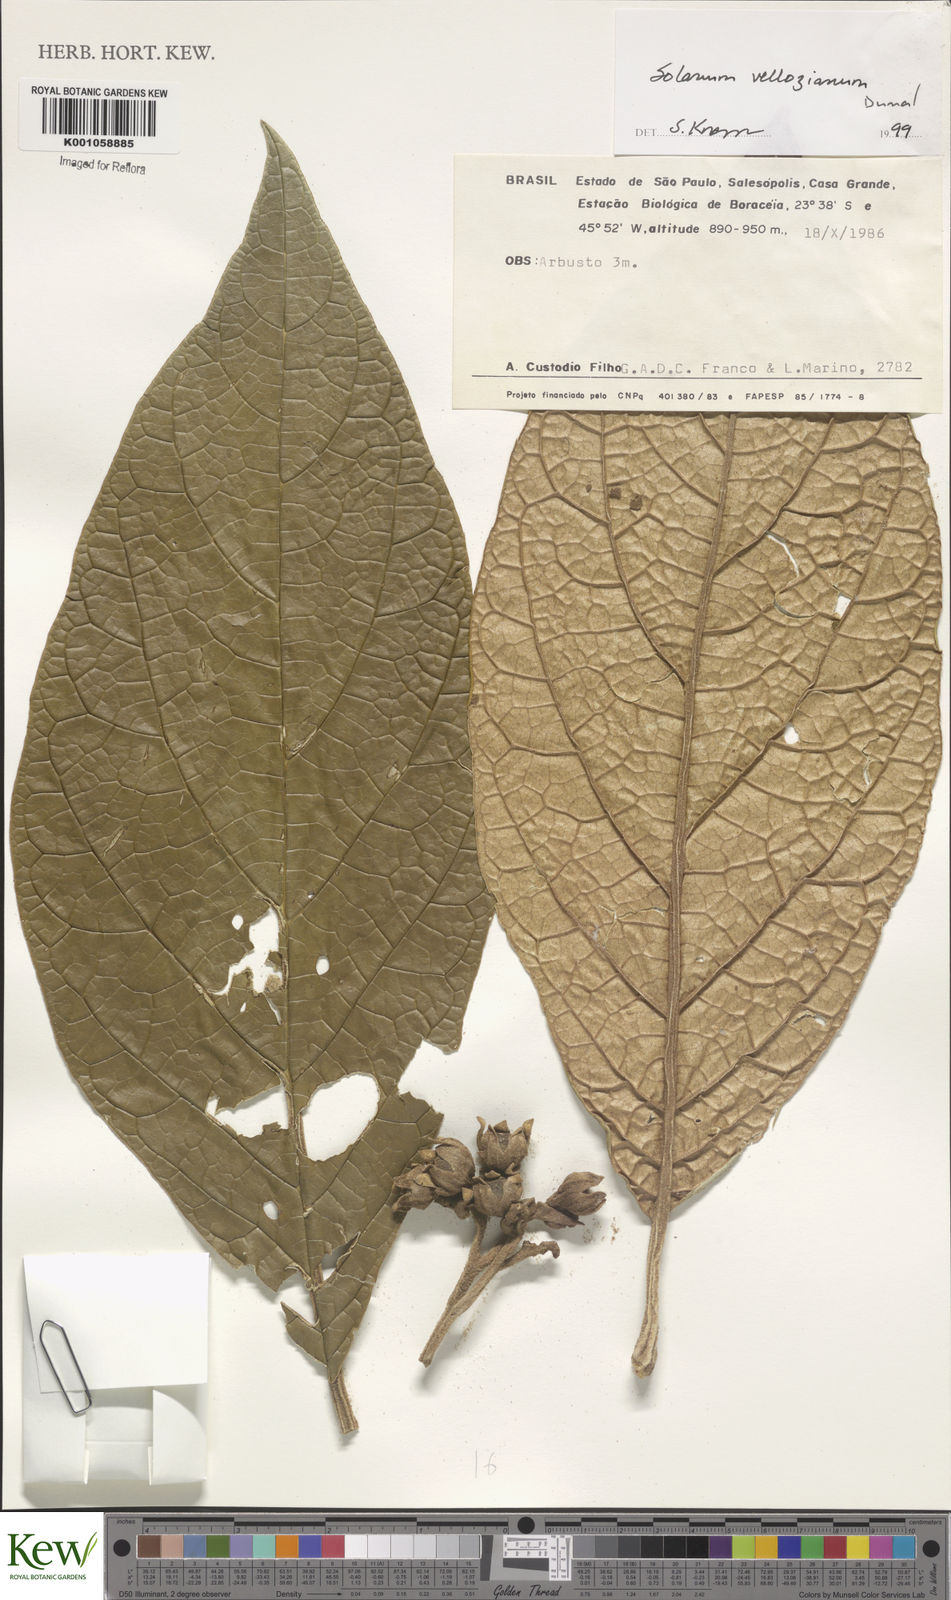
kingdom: Plantae
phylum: Tracheophyta
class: Magnoliopsida
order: Solanales
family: Solanaceae
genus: Solanum
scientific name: Solanum vellozianum
